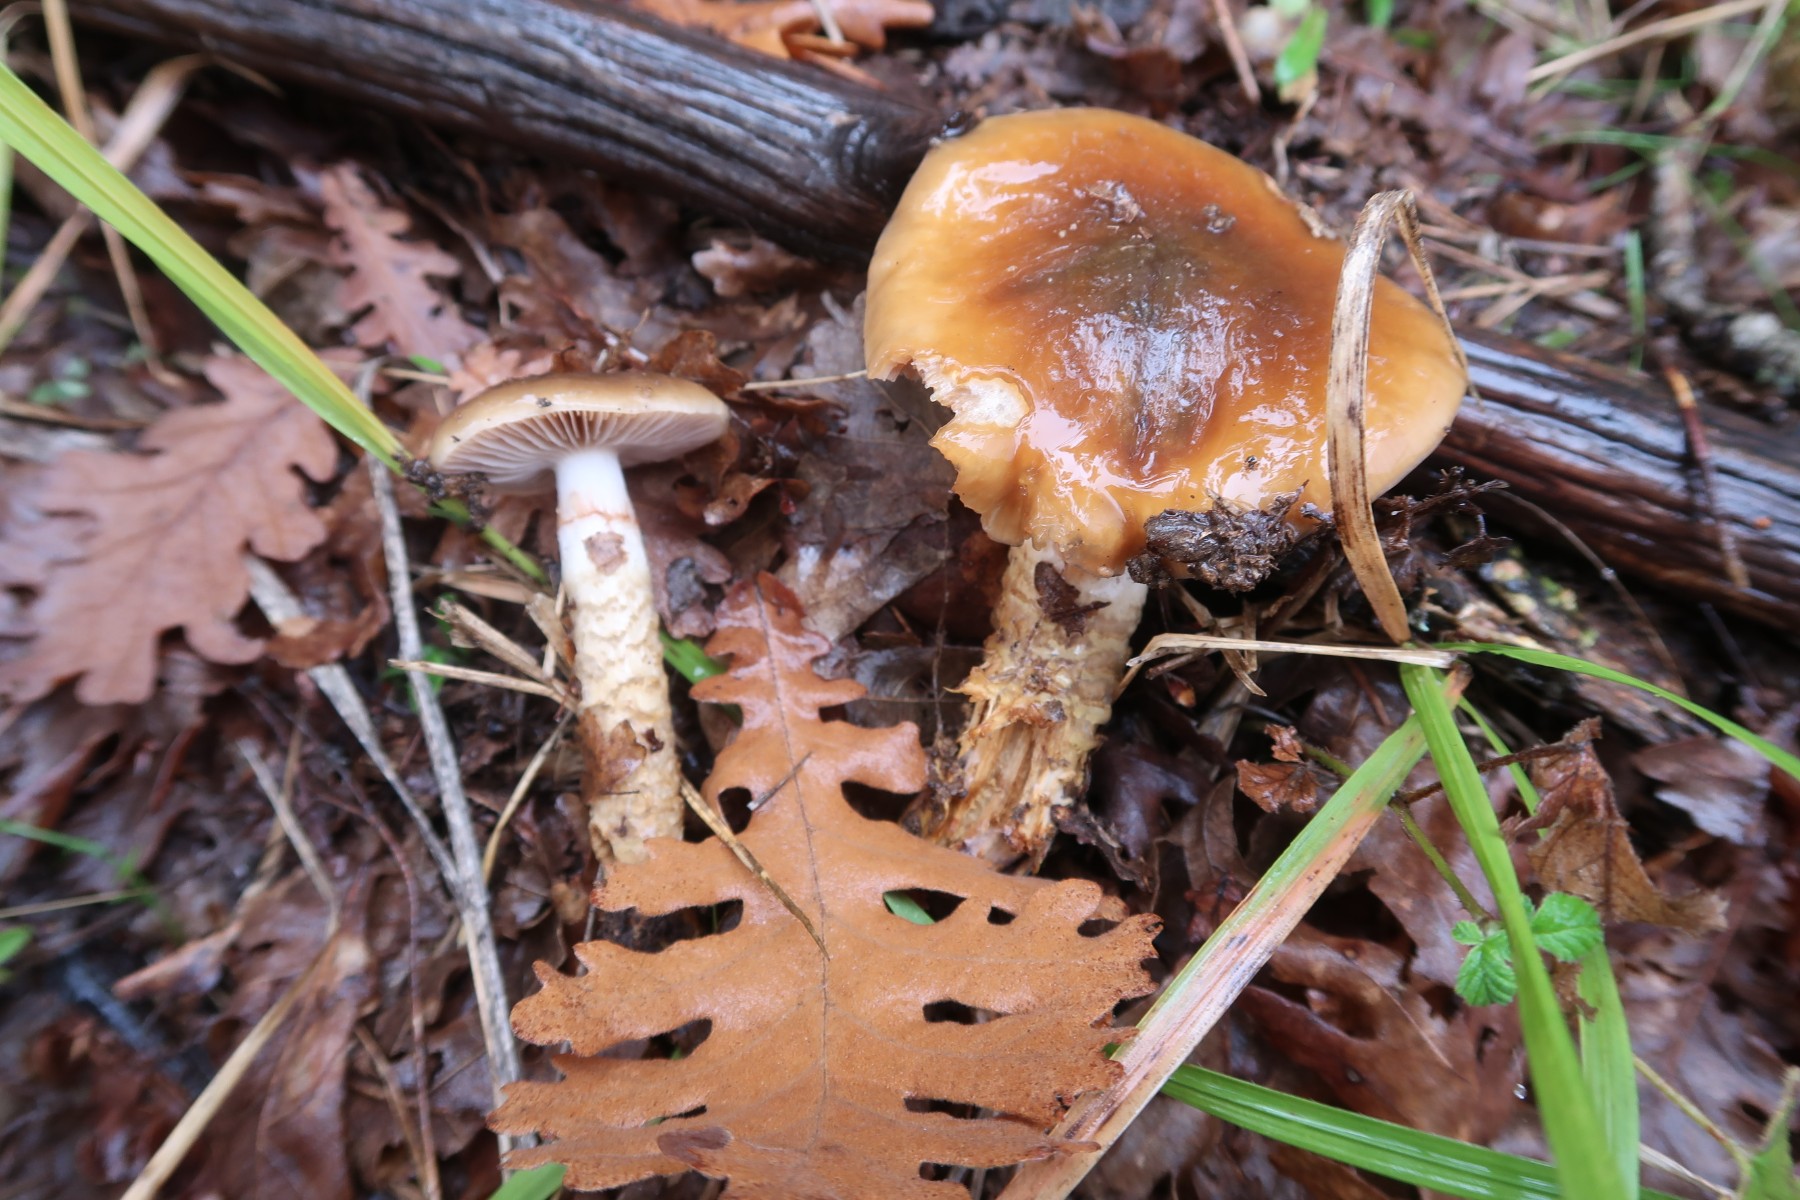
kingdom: Fungi
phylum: Basidiomycota
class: Agaricomycetes
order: Agaricales
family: Cortinariaceae
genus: Cortinarius
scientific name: Cortinarius trivialis
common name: Girdled webcap
